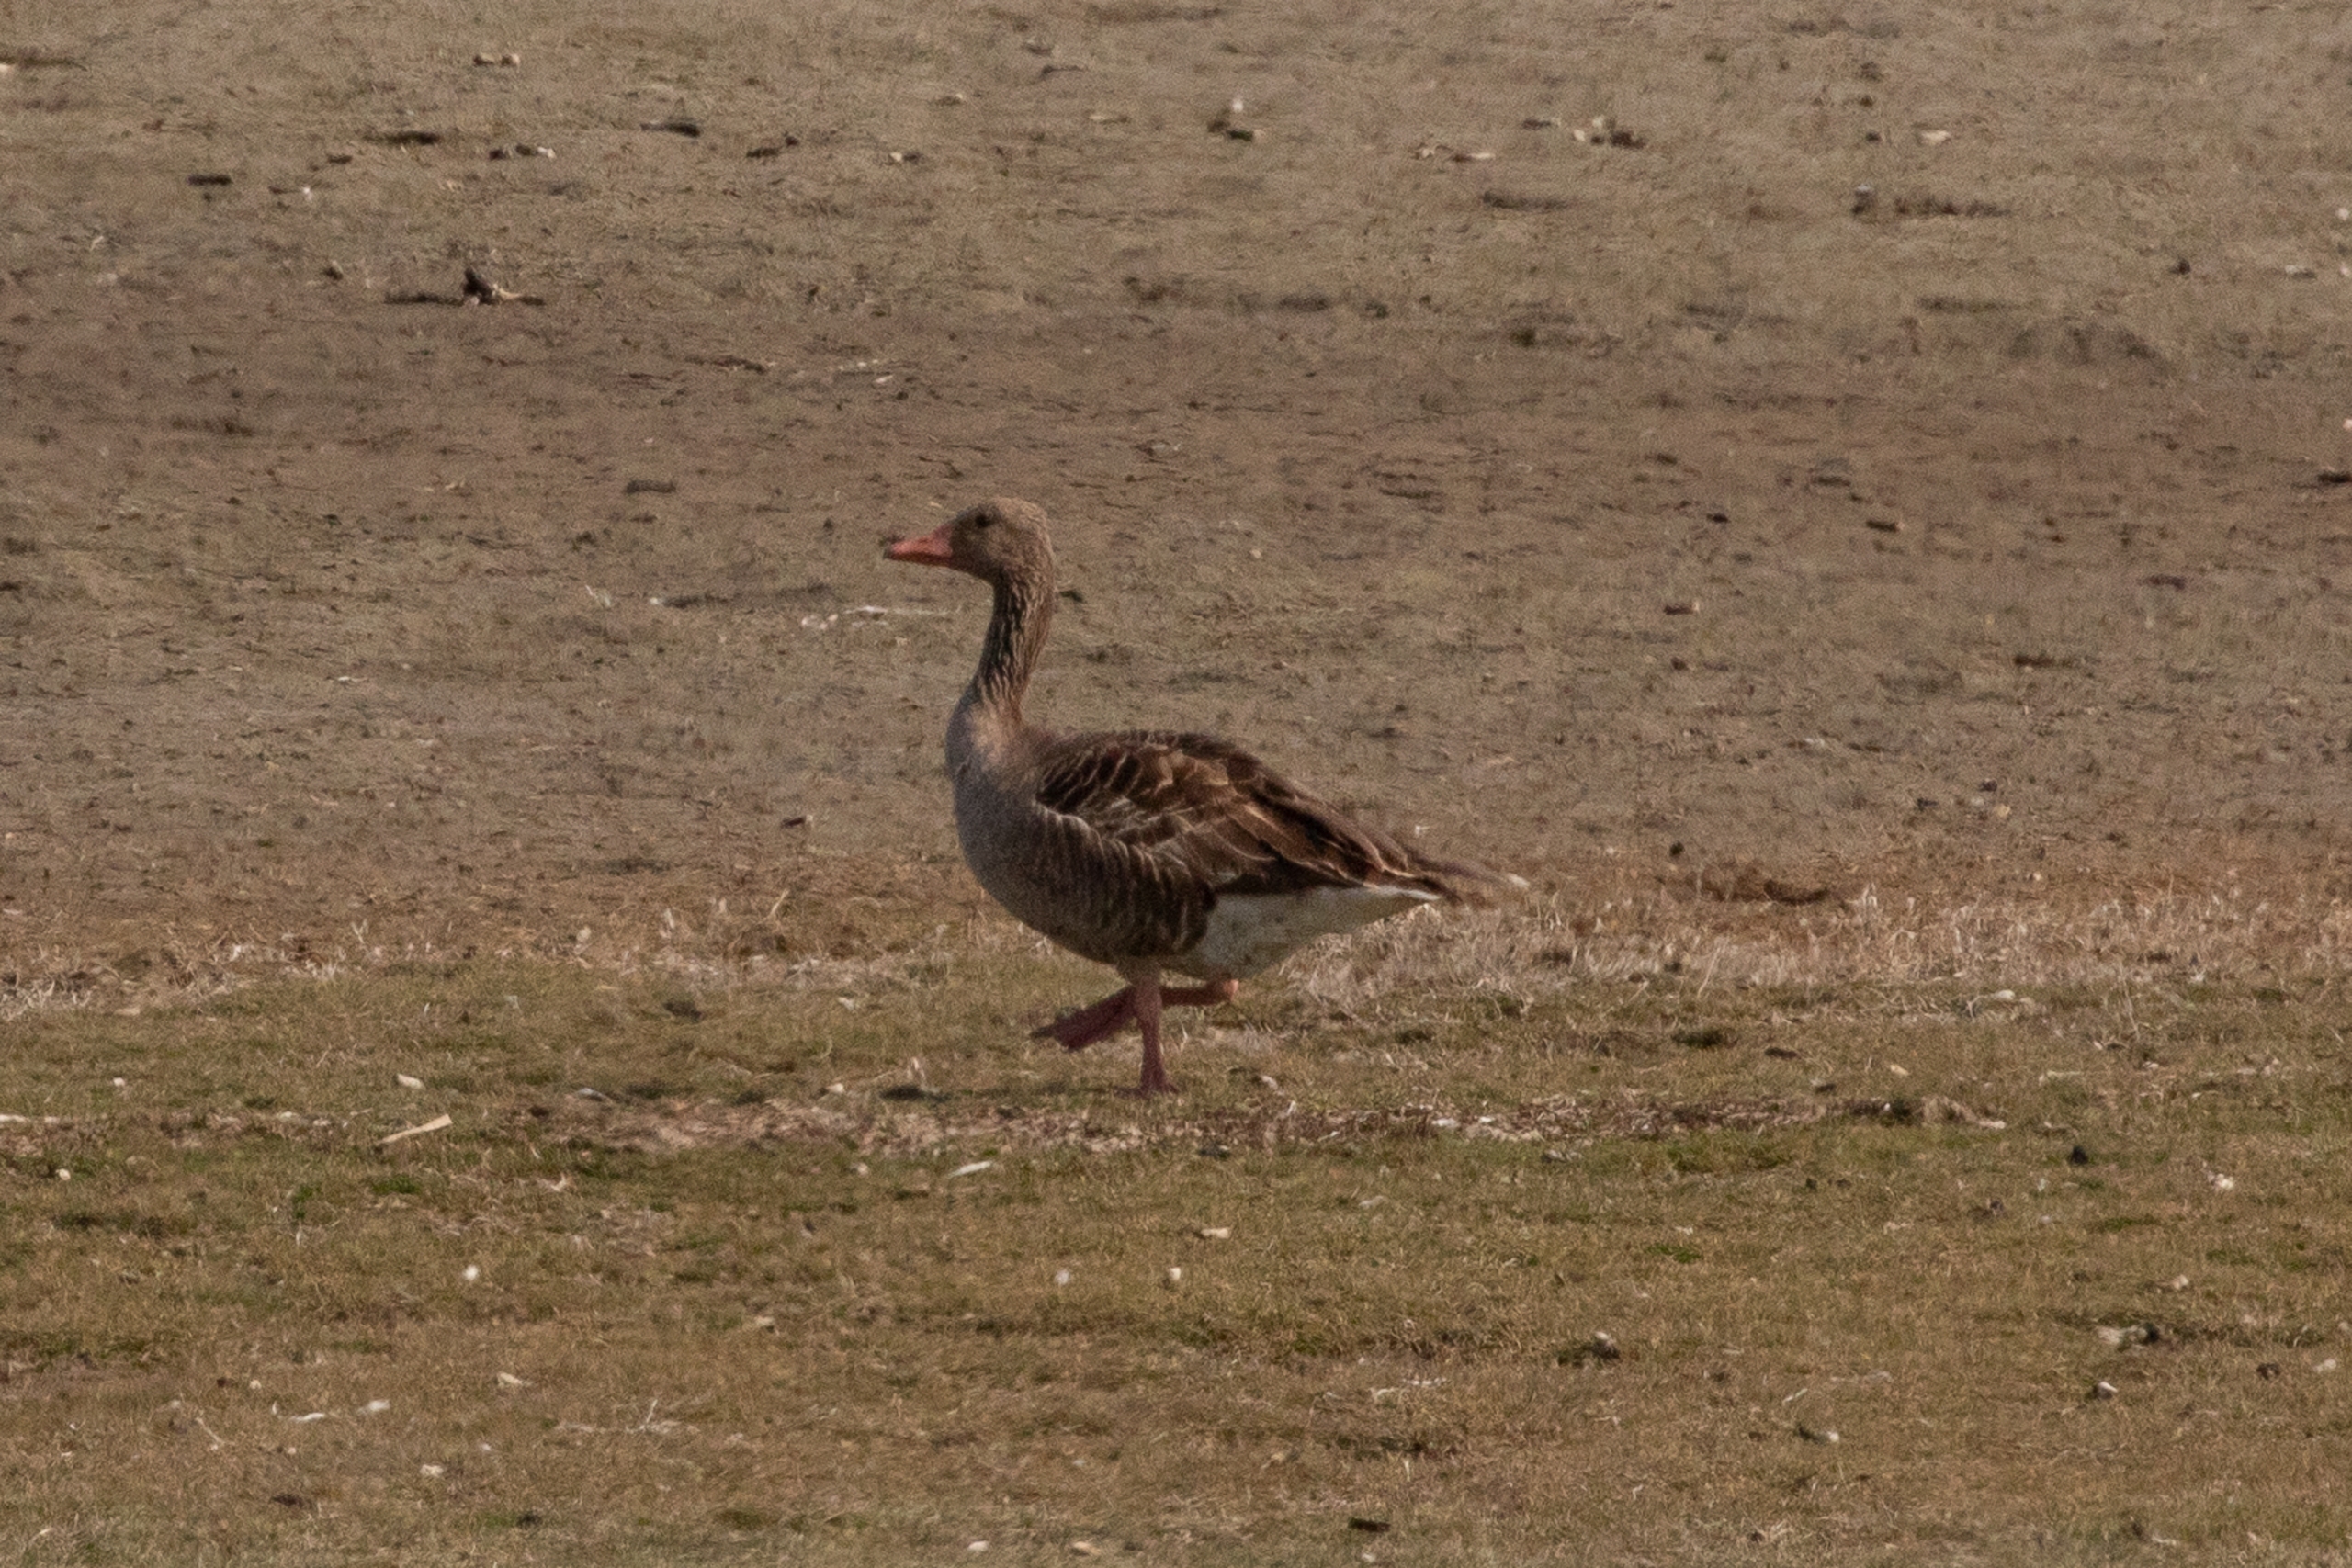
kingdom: Animalia
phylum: Chordata
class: Aves
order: Anseriformes
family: Anatidae
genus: Anser
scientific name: Anser anser
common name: Grågås
